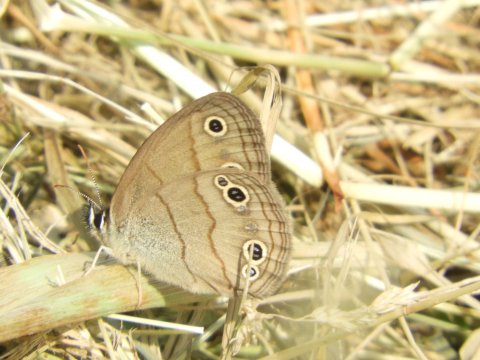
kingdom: Animalia
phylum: Arthropoda
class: Insecta
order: Lepidoptera
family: Nymphalidae
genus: Euptychia
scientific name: Euptychia cymela
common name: Little Wood Satyr
